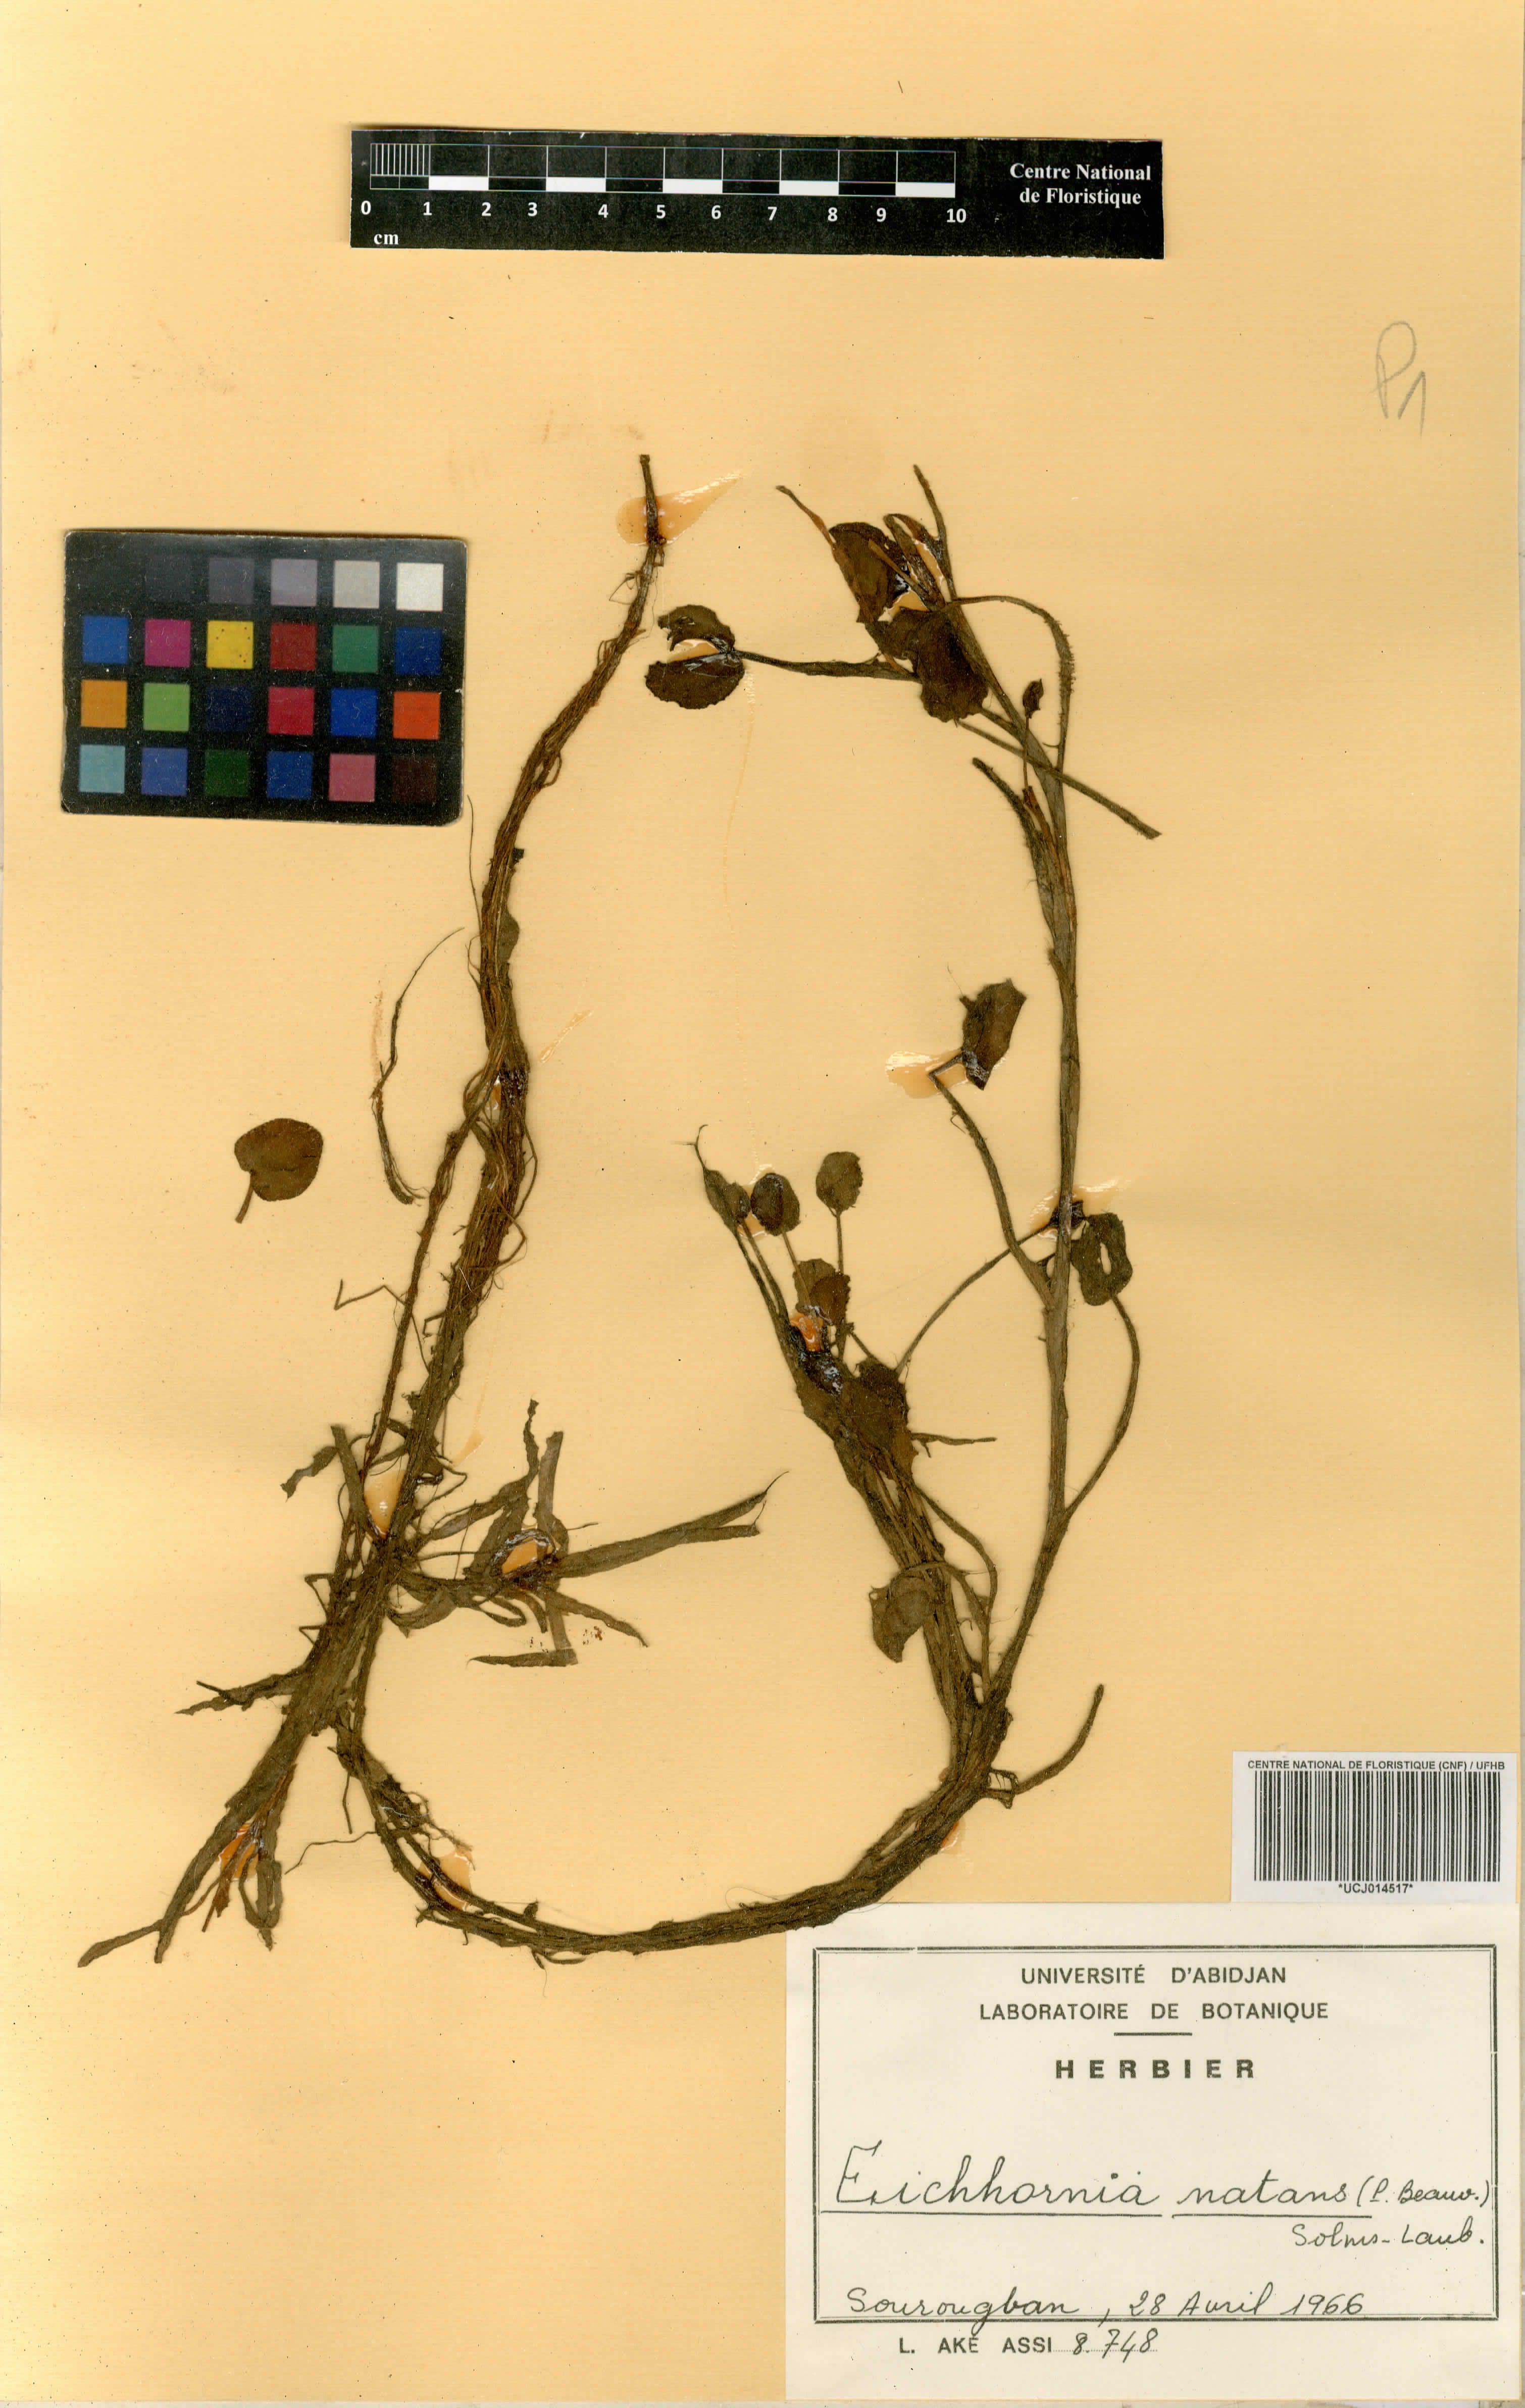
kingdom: Plantae
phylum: Tracheophyta
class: Liliopsida
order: Commelinales
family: Pontederiaceae
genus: Pontederia
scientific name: Pontederia natans
